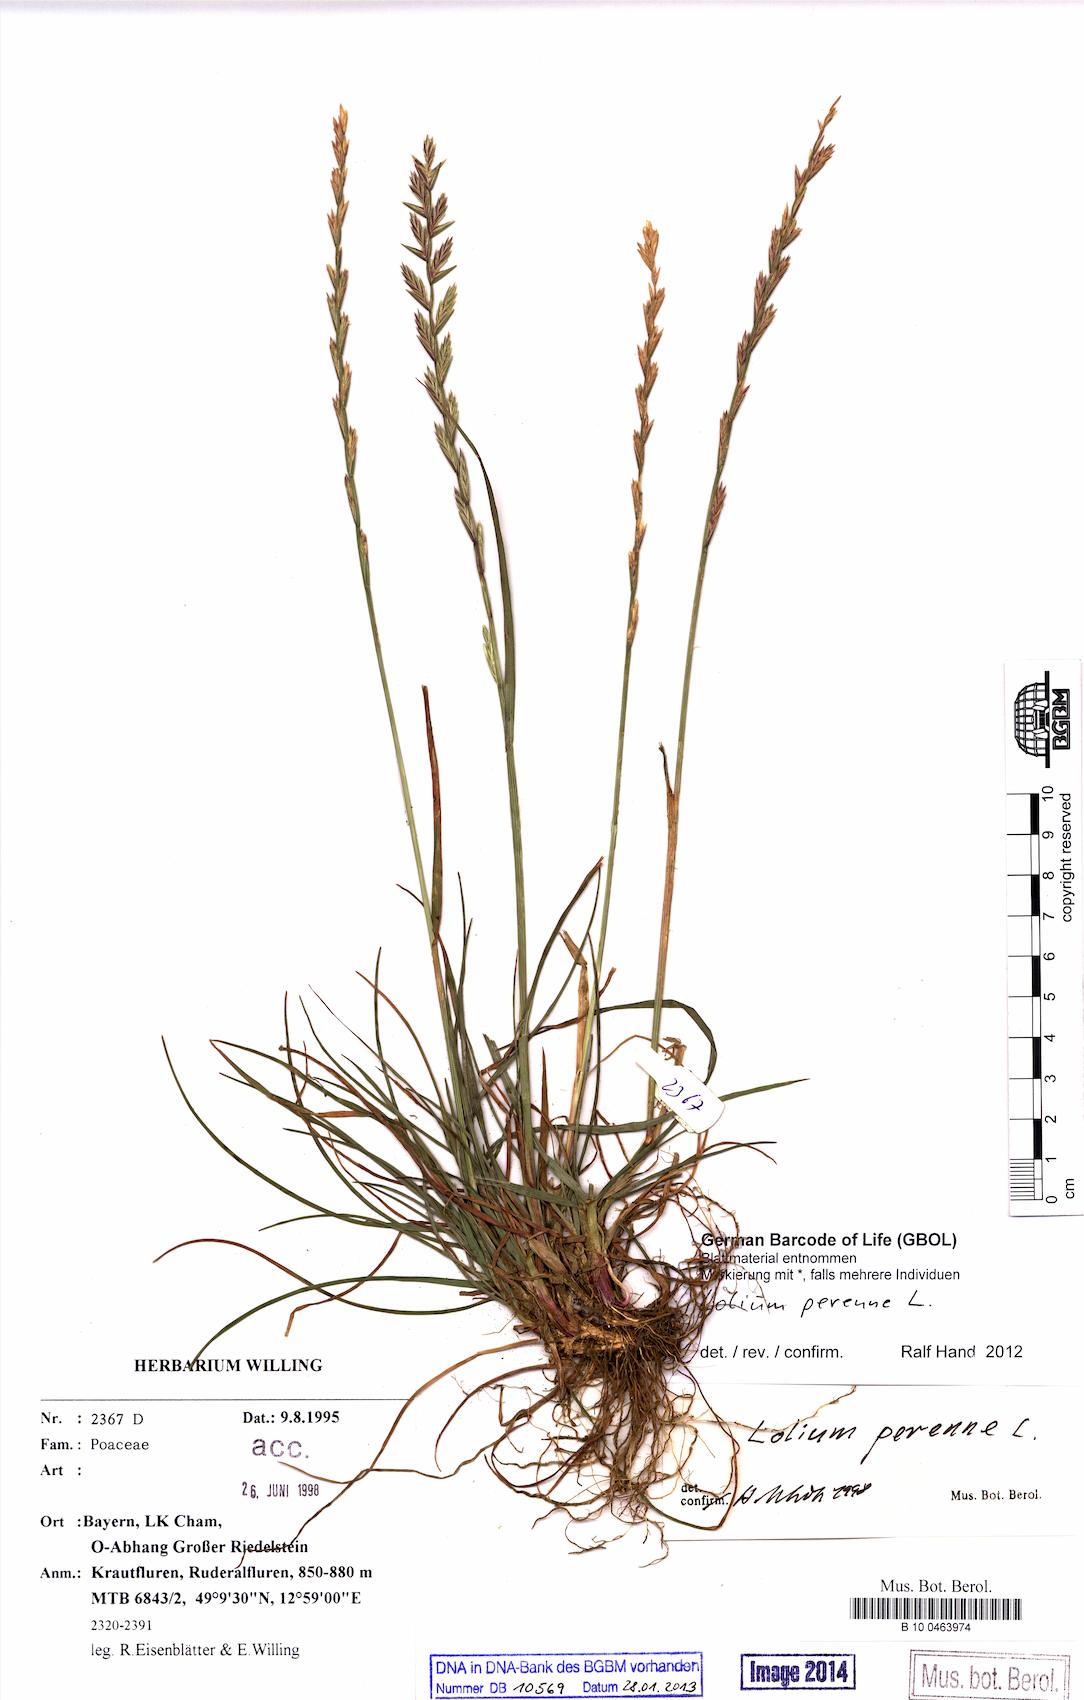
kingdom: Plantae
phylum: Tracheophyta
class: Liliopsida
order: Poales
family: Poaceae
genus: Lolium
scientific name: Lolium perenne
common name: Perennial ryegrass
